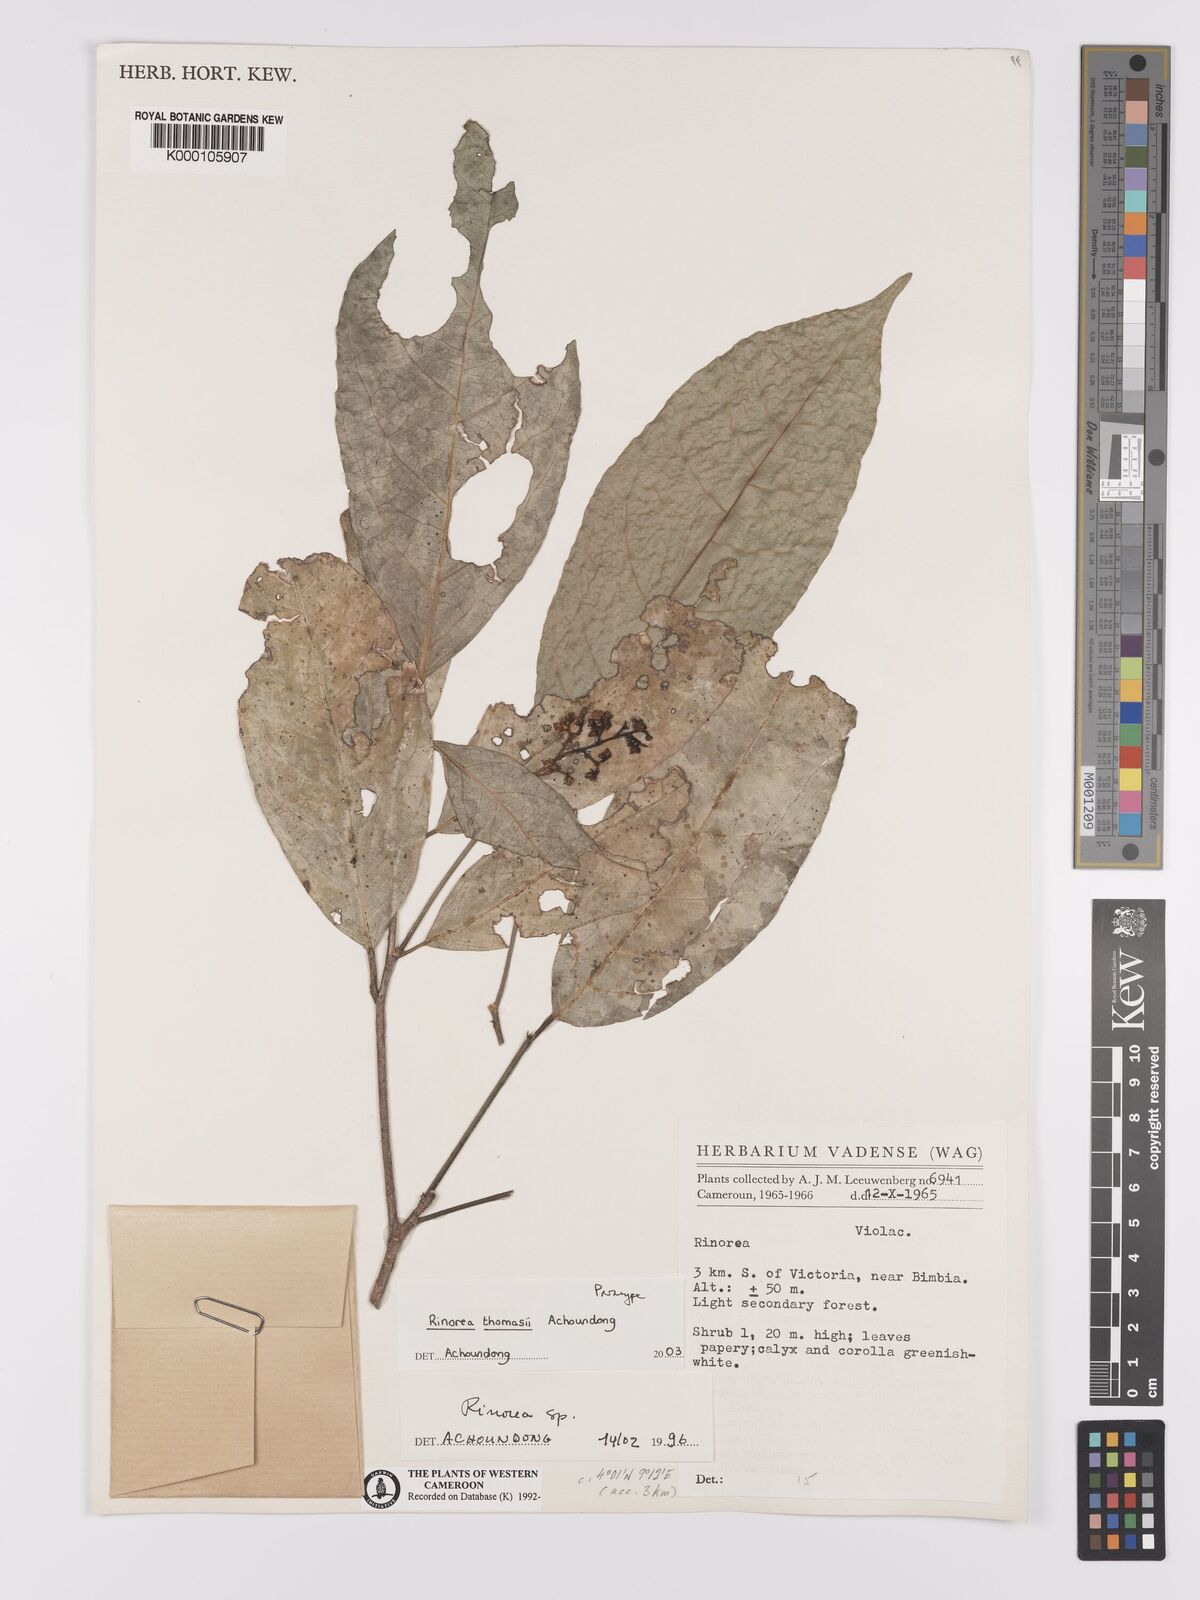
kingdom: Plantae
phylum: Tracheophyta
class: Magnoliopsida
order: Malpighiales
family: Violaceae
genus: Rinorea
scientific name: Rinorea thomasii
